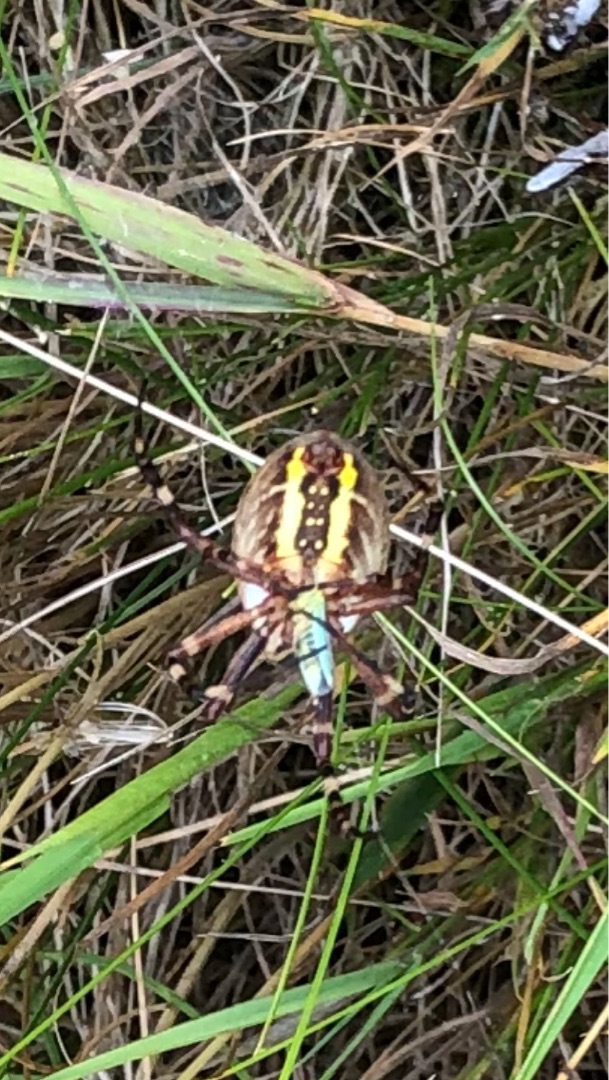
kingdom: Animalia
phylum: Arthropoda
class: Arachnida
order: Araneae
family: Araneidae
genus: Argiope
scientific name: Argiope bruennichi
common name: Hvepseedderkop
